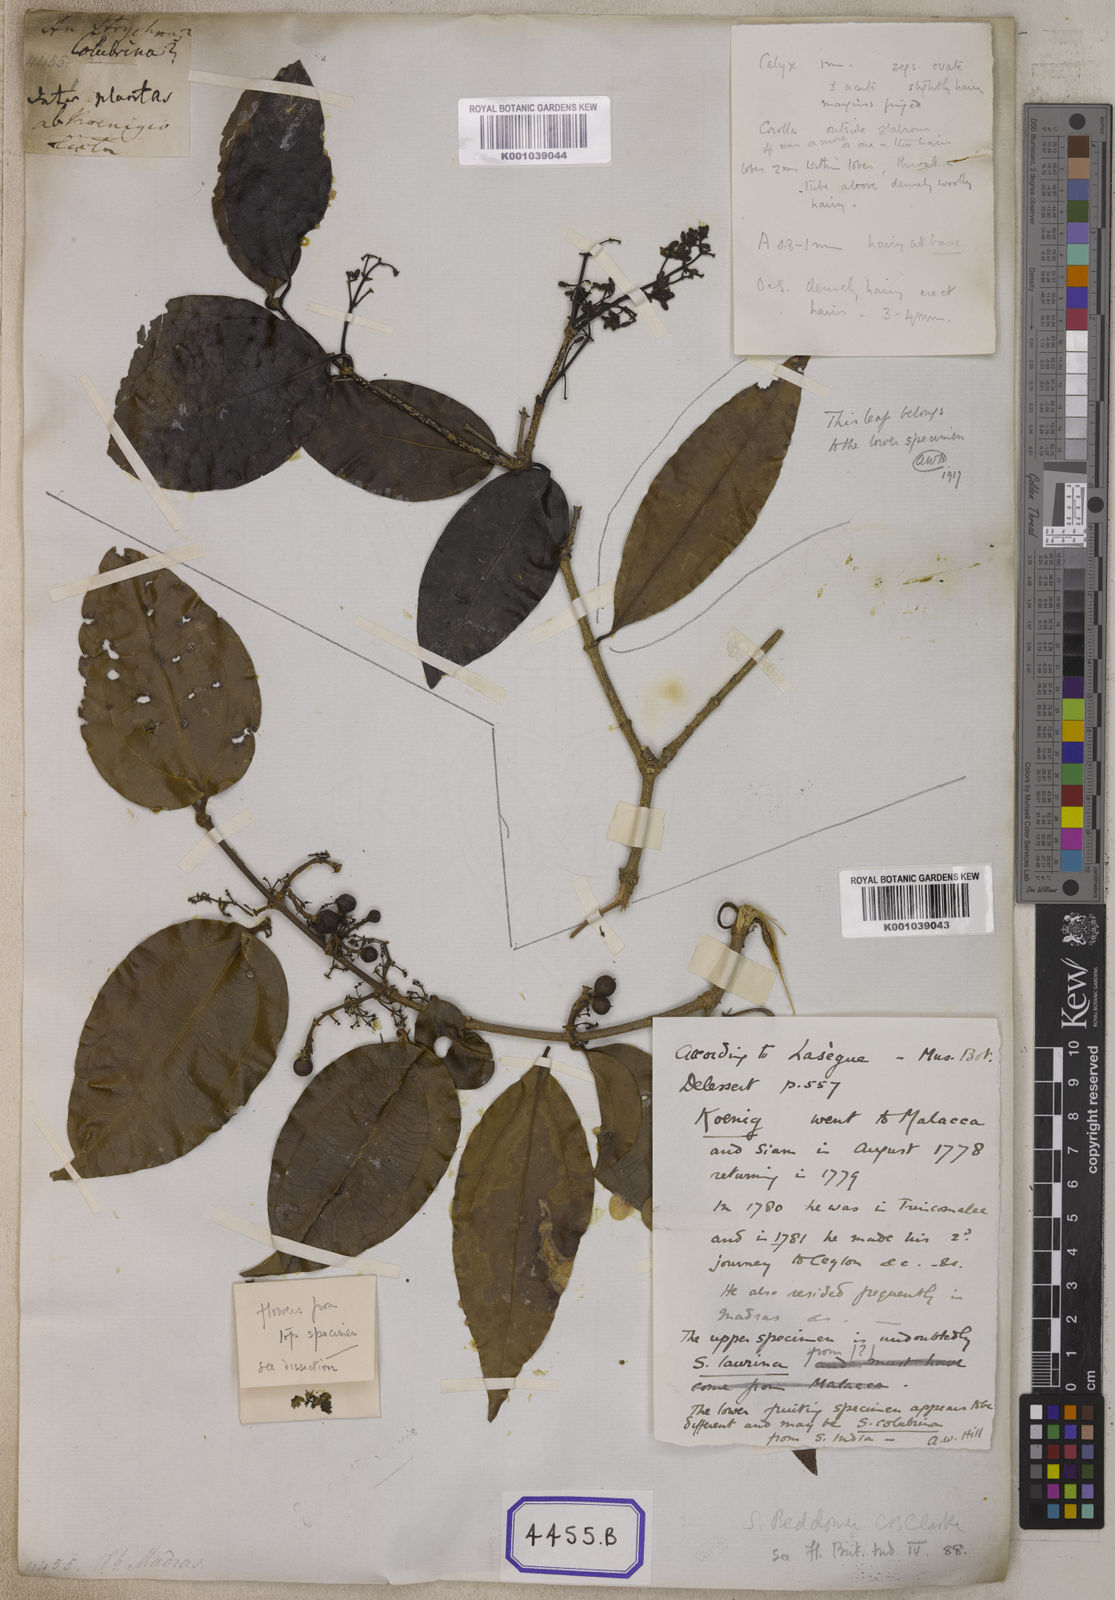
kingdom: Plantae
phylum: Tracheophyta
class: Magnoliopsida
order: Gentianales
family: Loganiaceae
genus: Strychnos
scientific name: Strychnos
